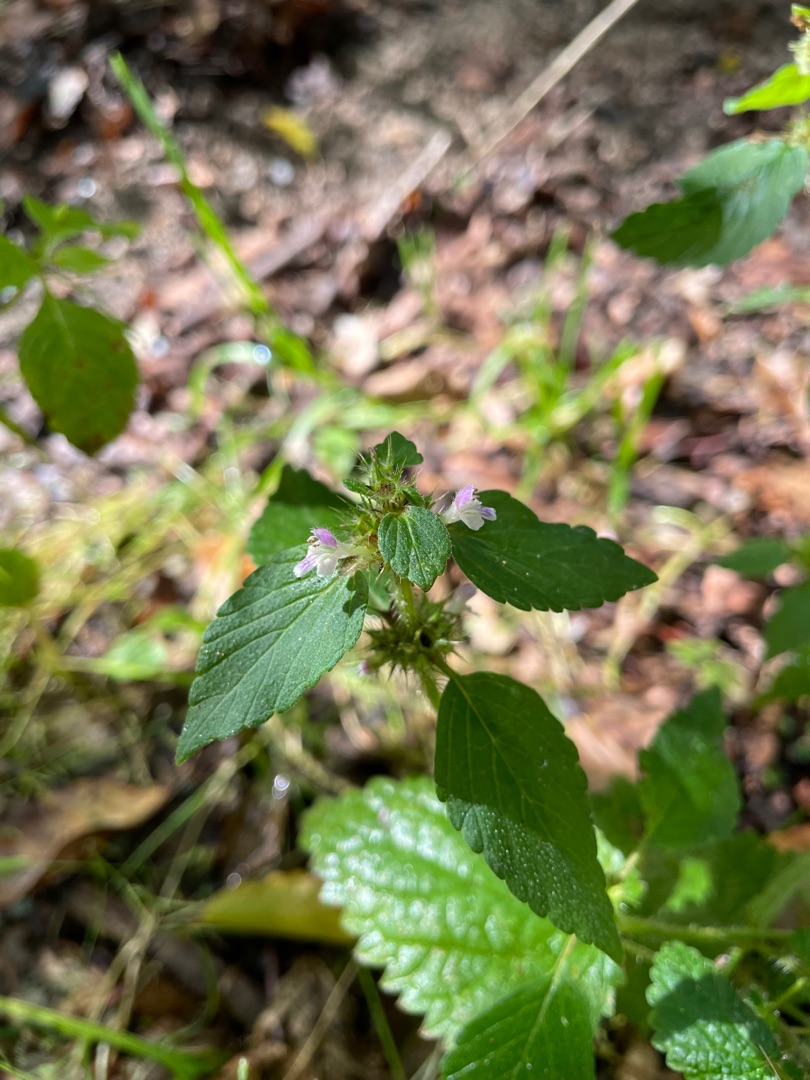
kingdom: Plantae
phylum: Tracheophyta
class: Magnoliopsida
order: Lamiales
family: Lamiaceae
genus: Galeopsis
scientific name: Galeopsis bifida
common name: Skov-hanekro
